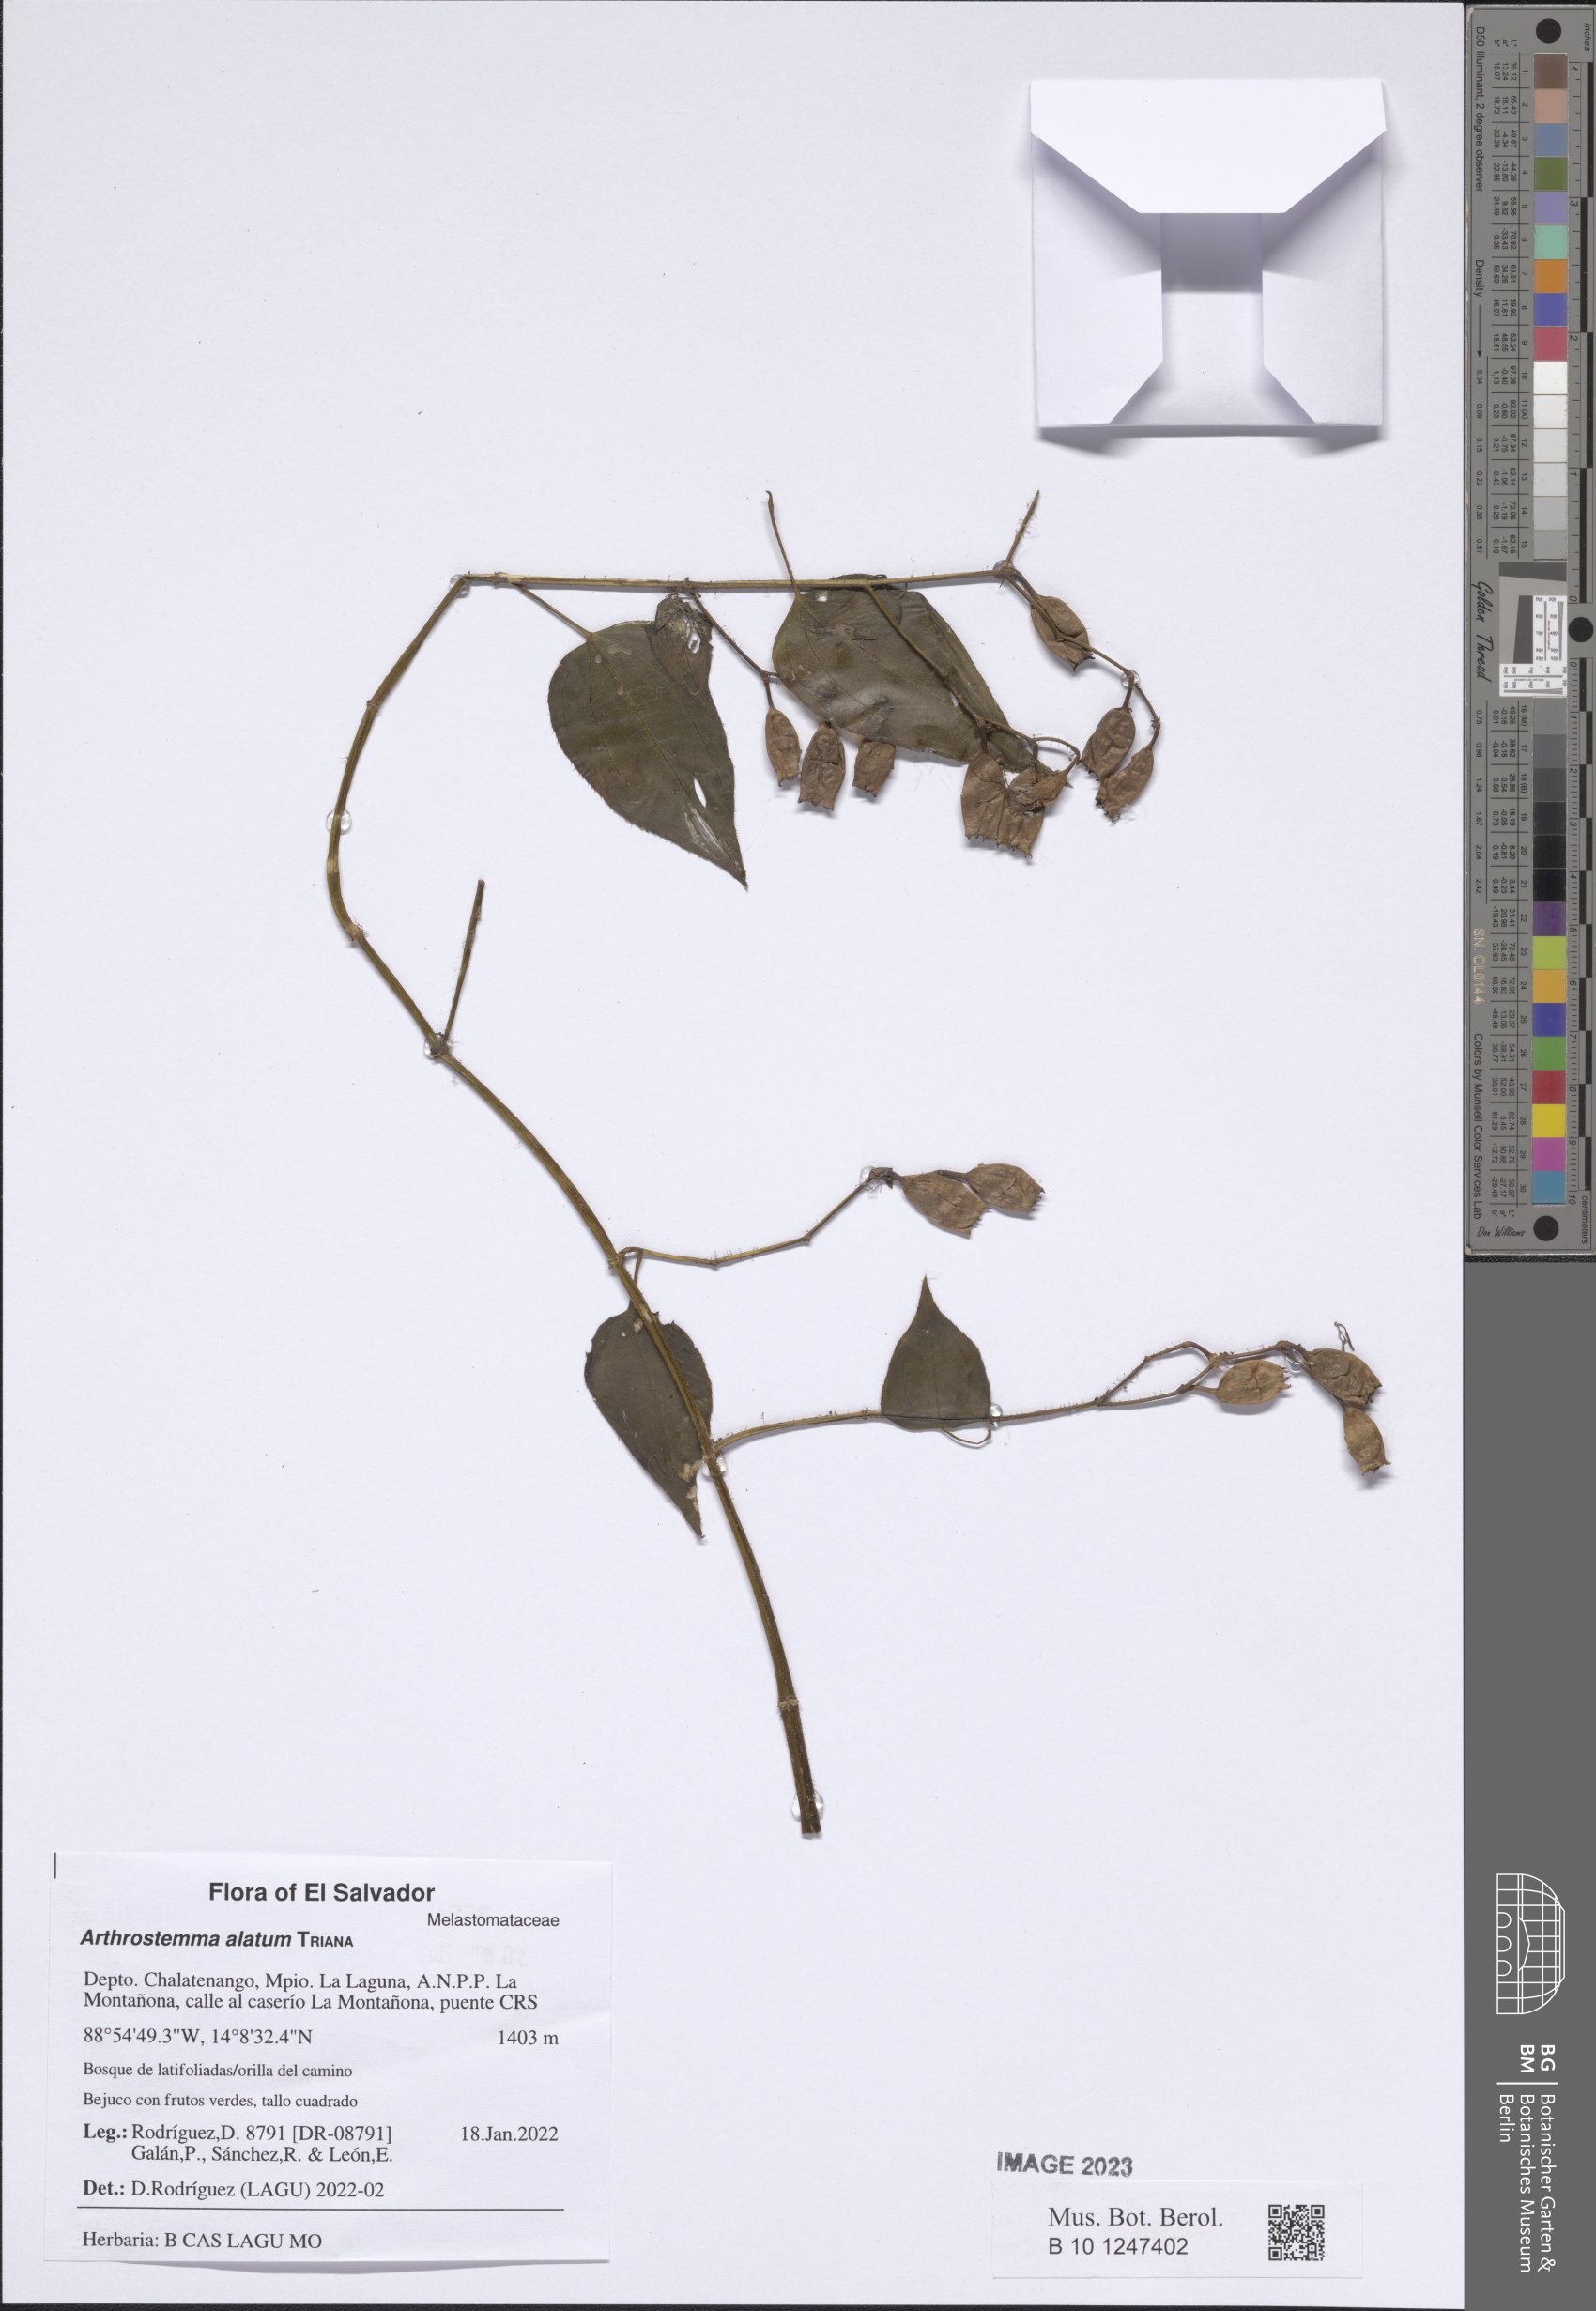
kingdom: Plantae
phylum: Tracheophyta
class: Magnoliopsida
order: Myrtales
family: Melastomataceae
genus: Arthrostemma
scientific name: Arthrostemma alatum
